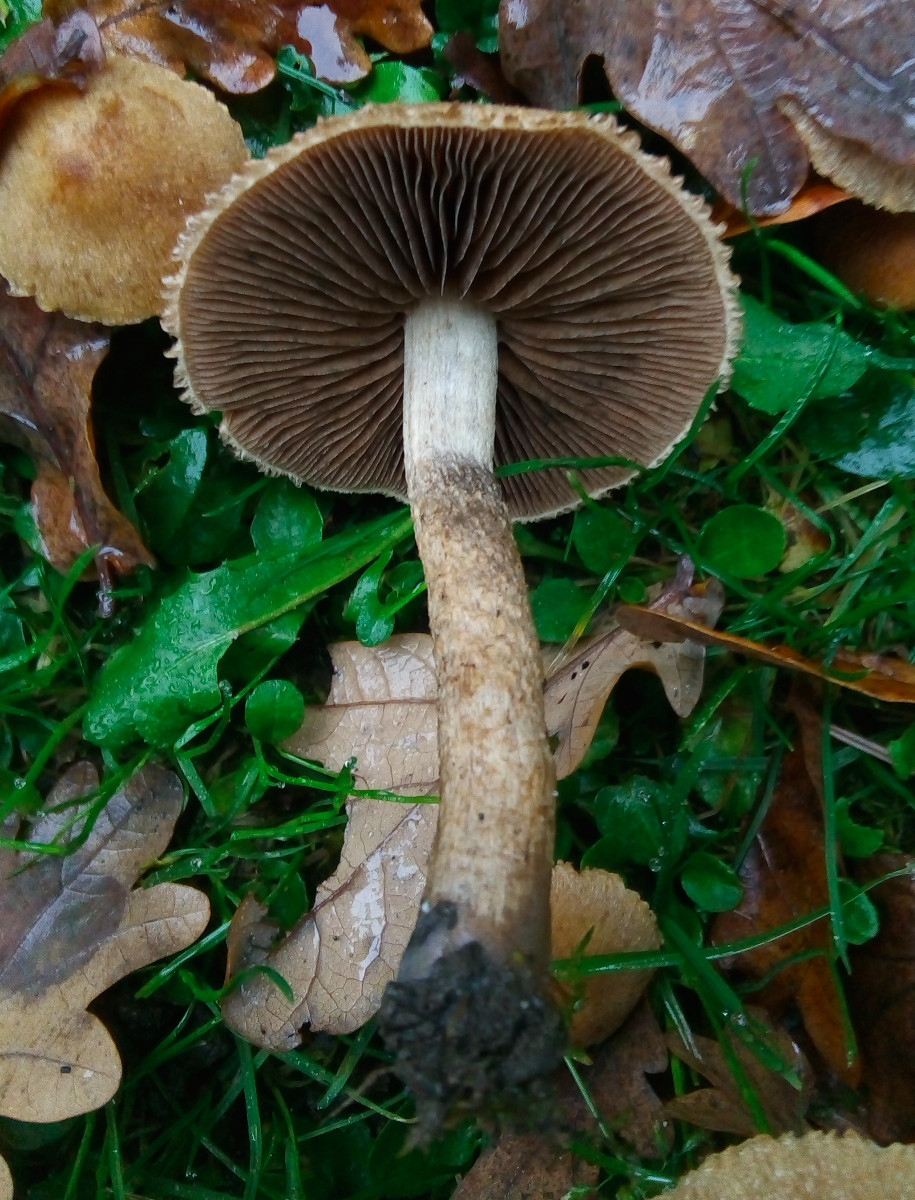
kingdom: Fungi
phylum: Basidiomycota
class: Agaricomycetes
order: Agaricales
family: Psathyrellaceae
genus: Lacrymaria
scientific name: Lacrymaria lacrymabunda
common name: grædende mørkhat
